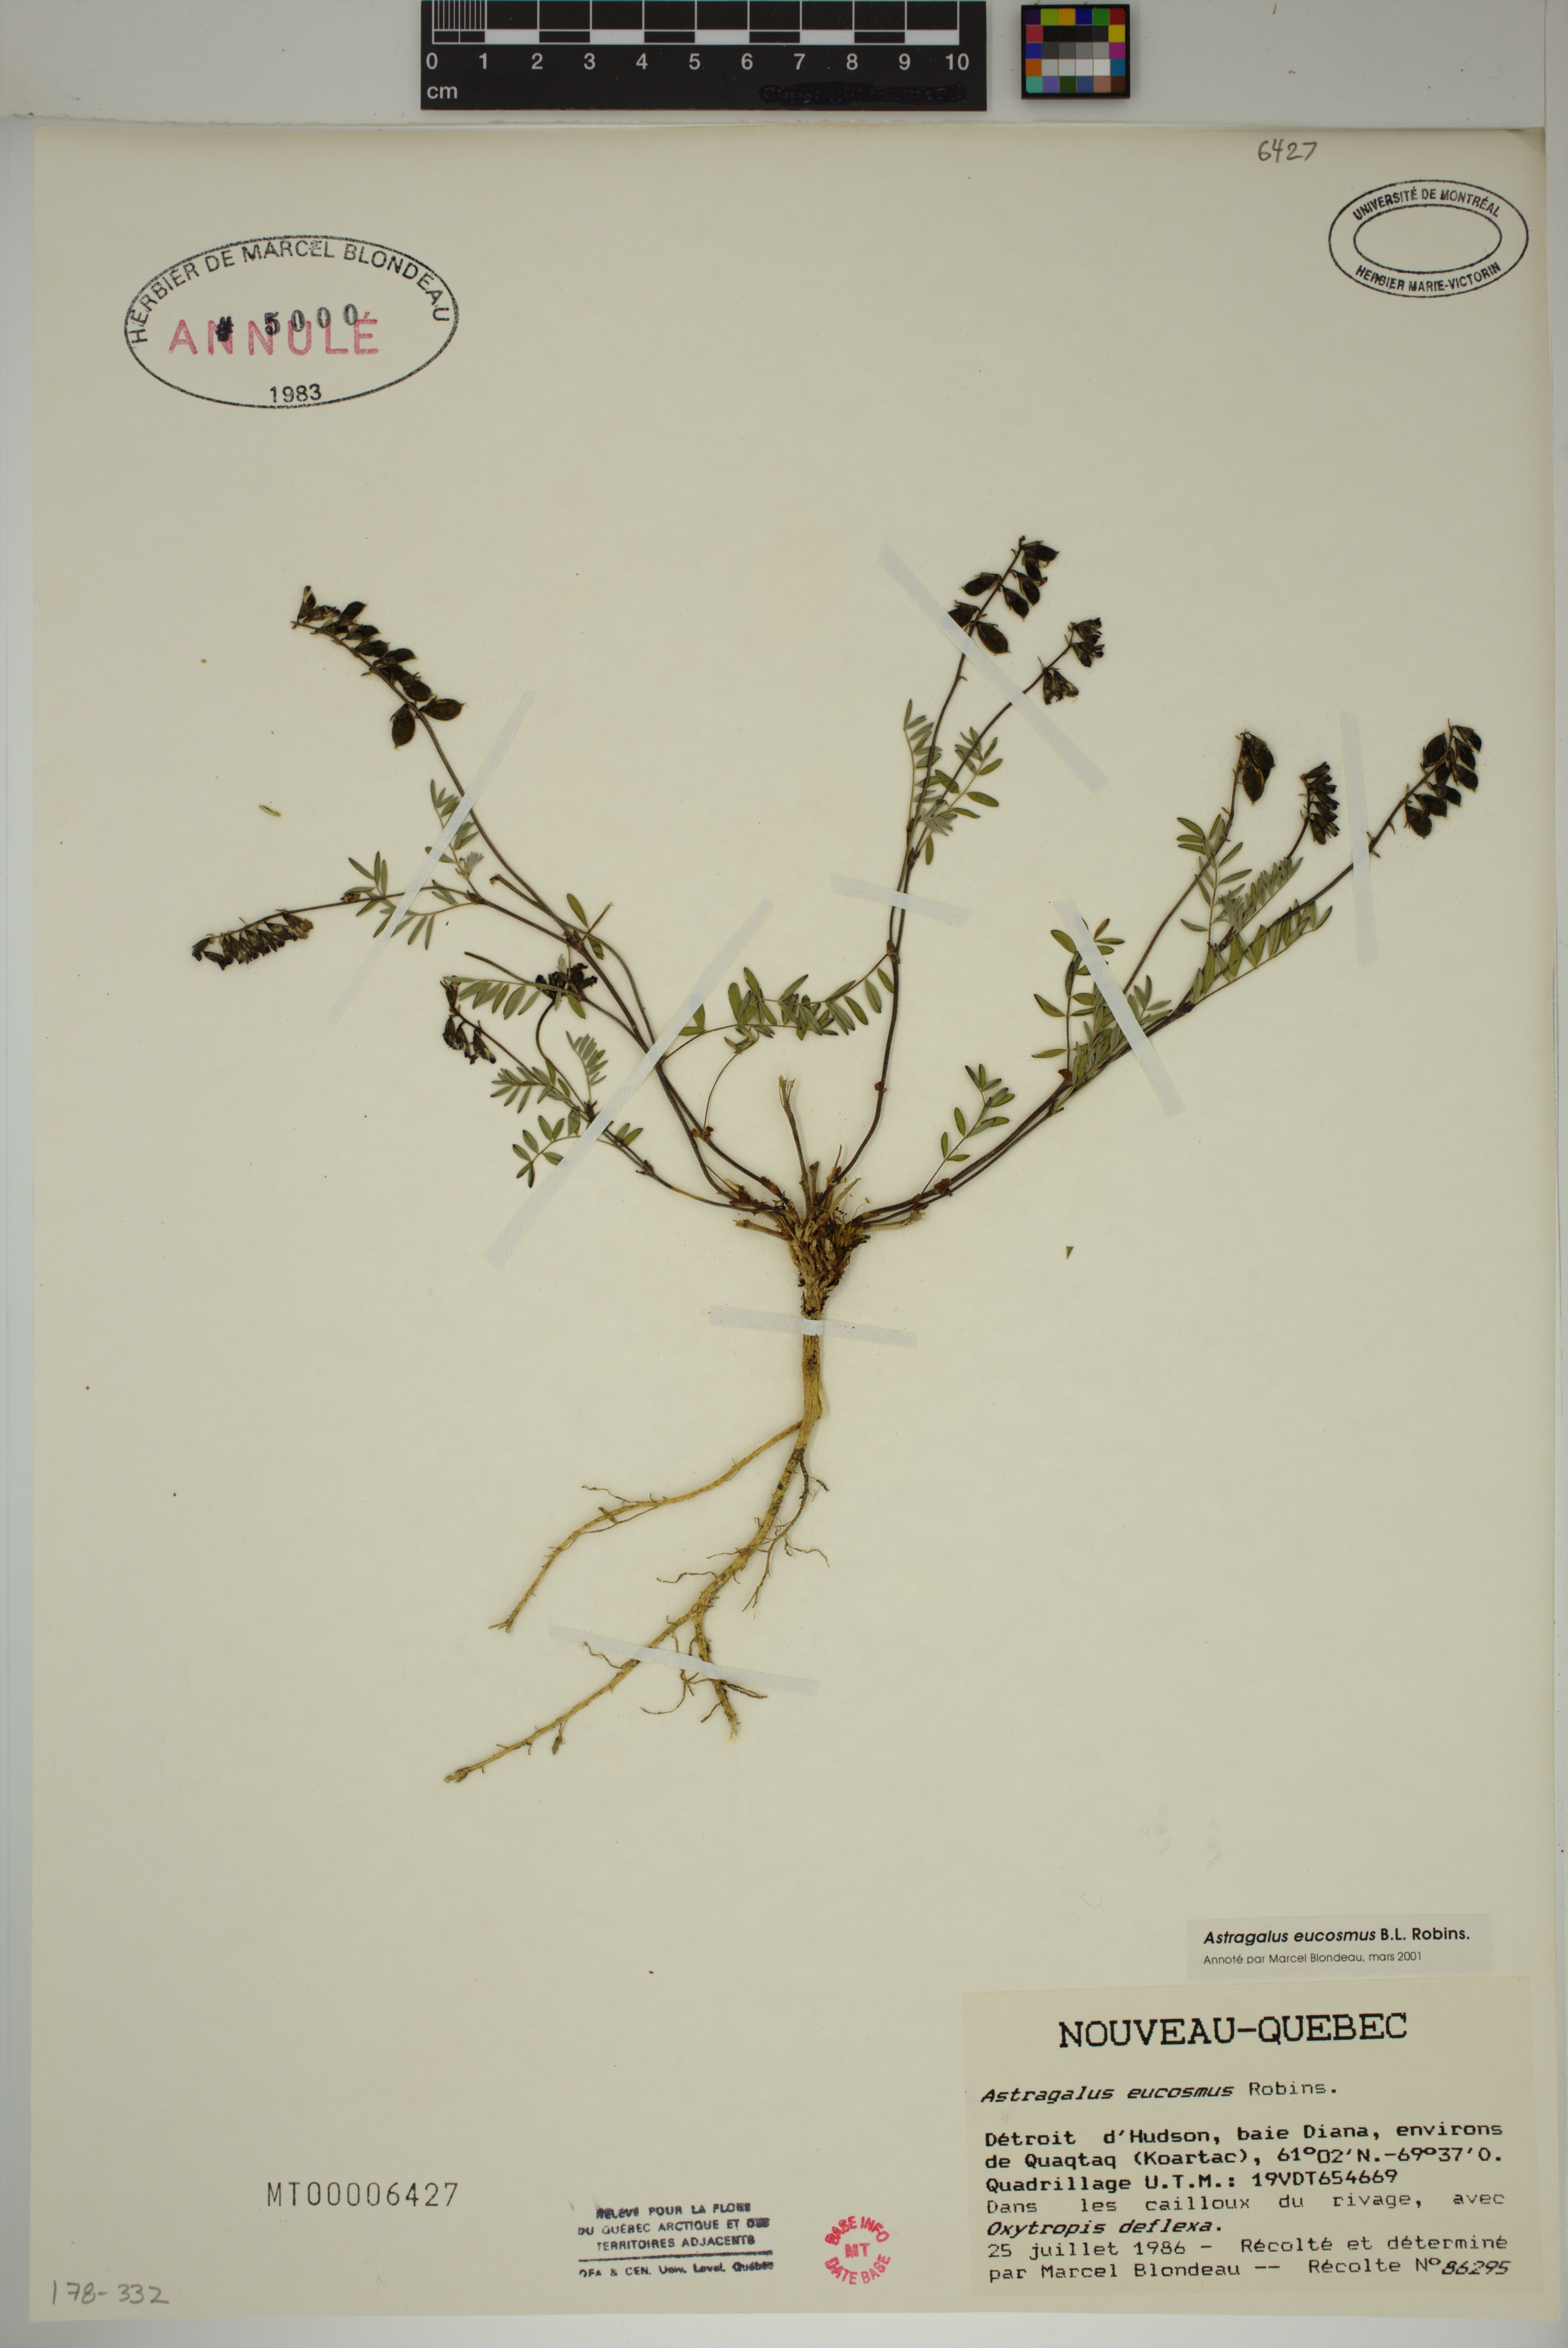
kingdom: Plantae
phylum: Tracheophyta
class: Magnoliopsida
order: Fabales
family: Fabaceae
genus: Astragalus
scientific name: Astragalus eucosmus
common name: Elegant milk-vetch
